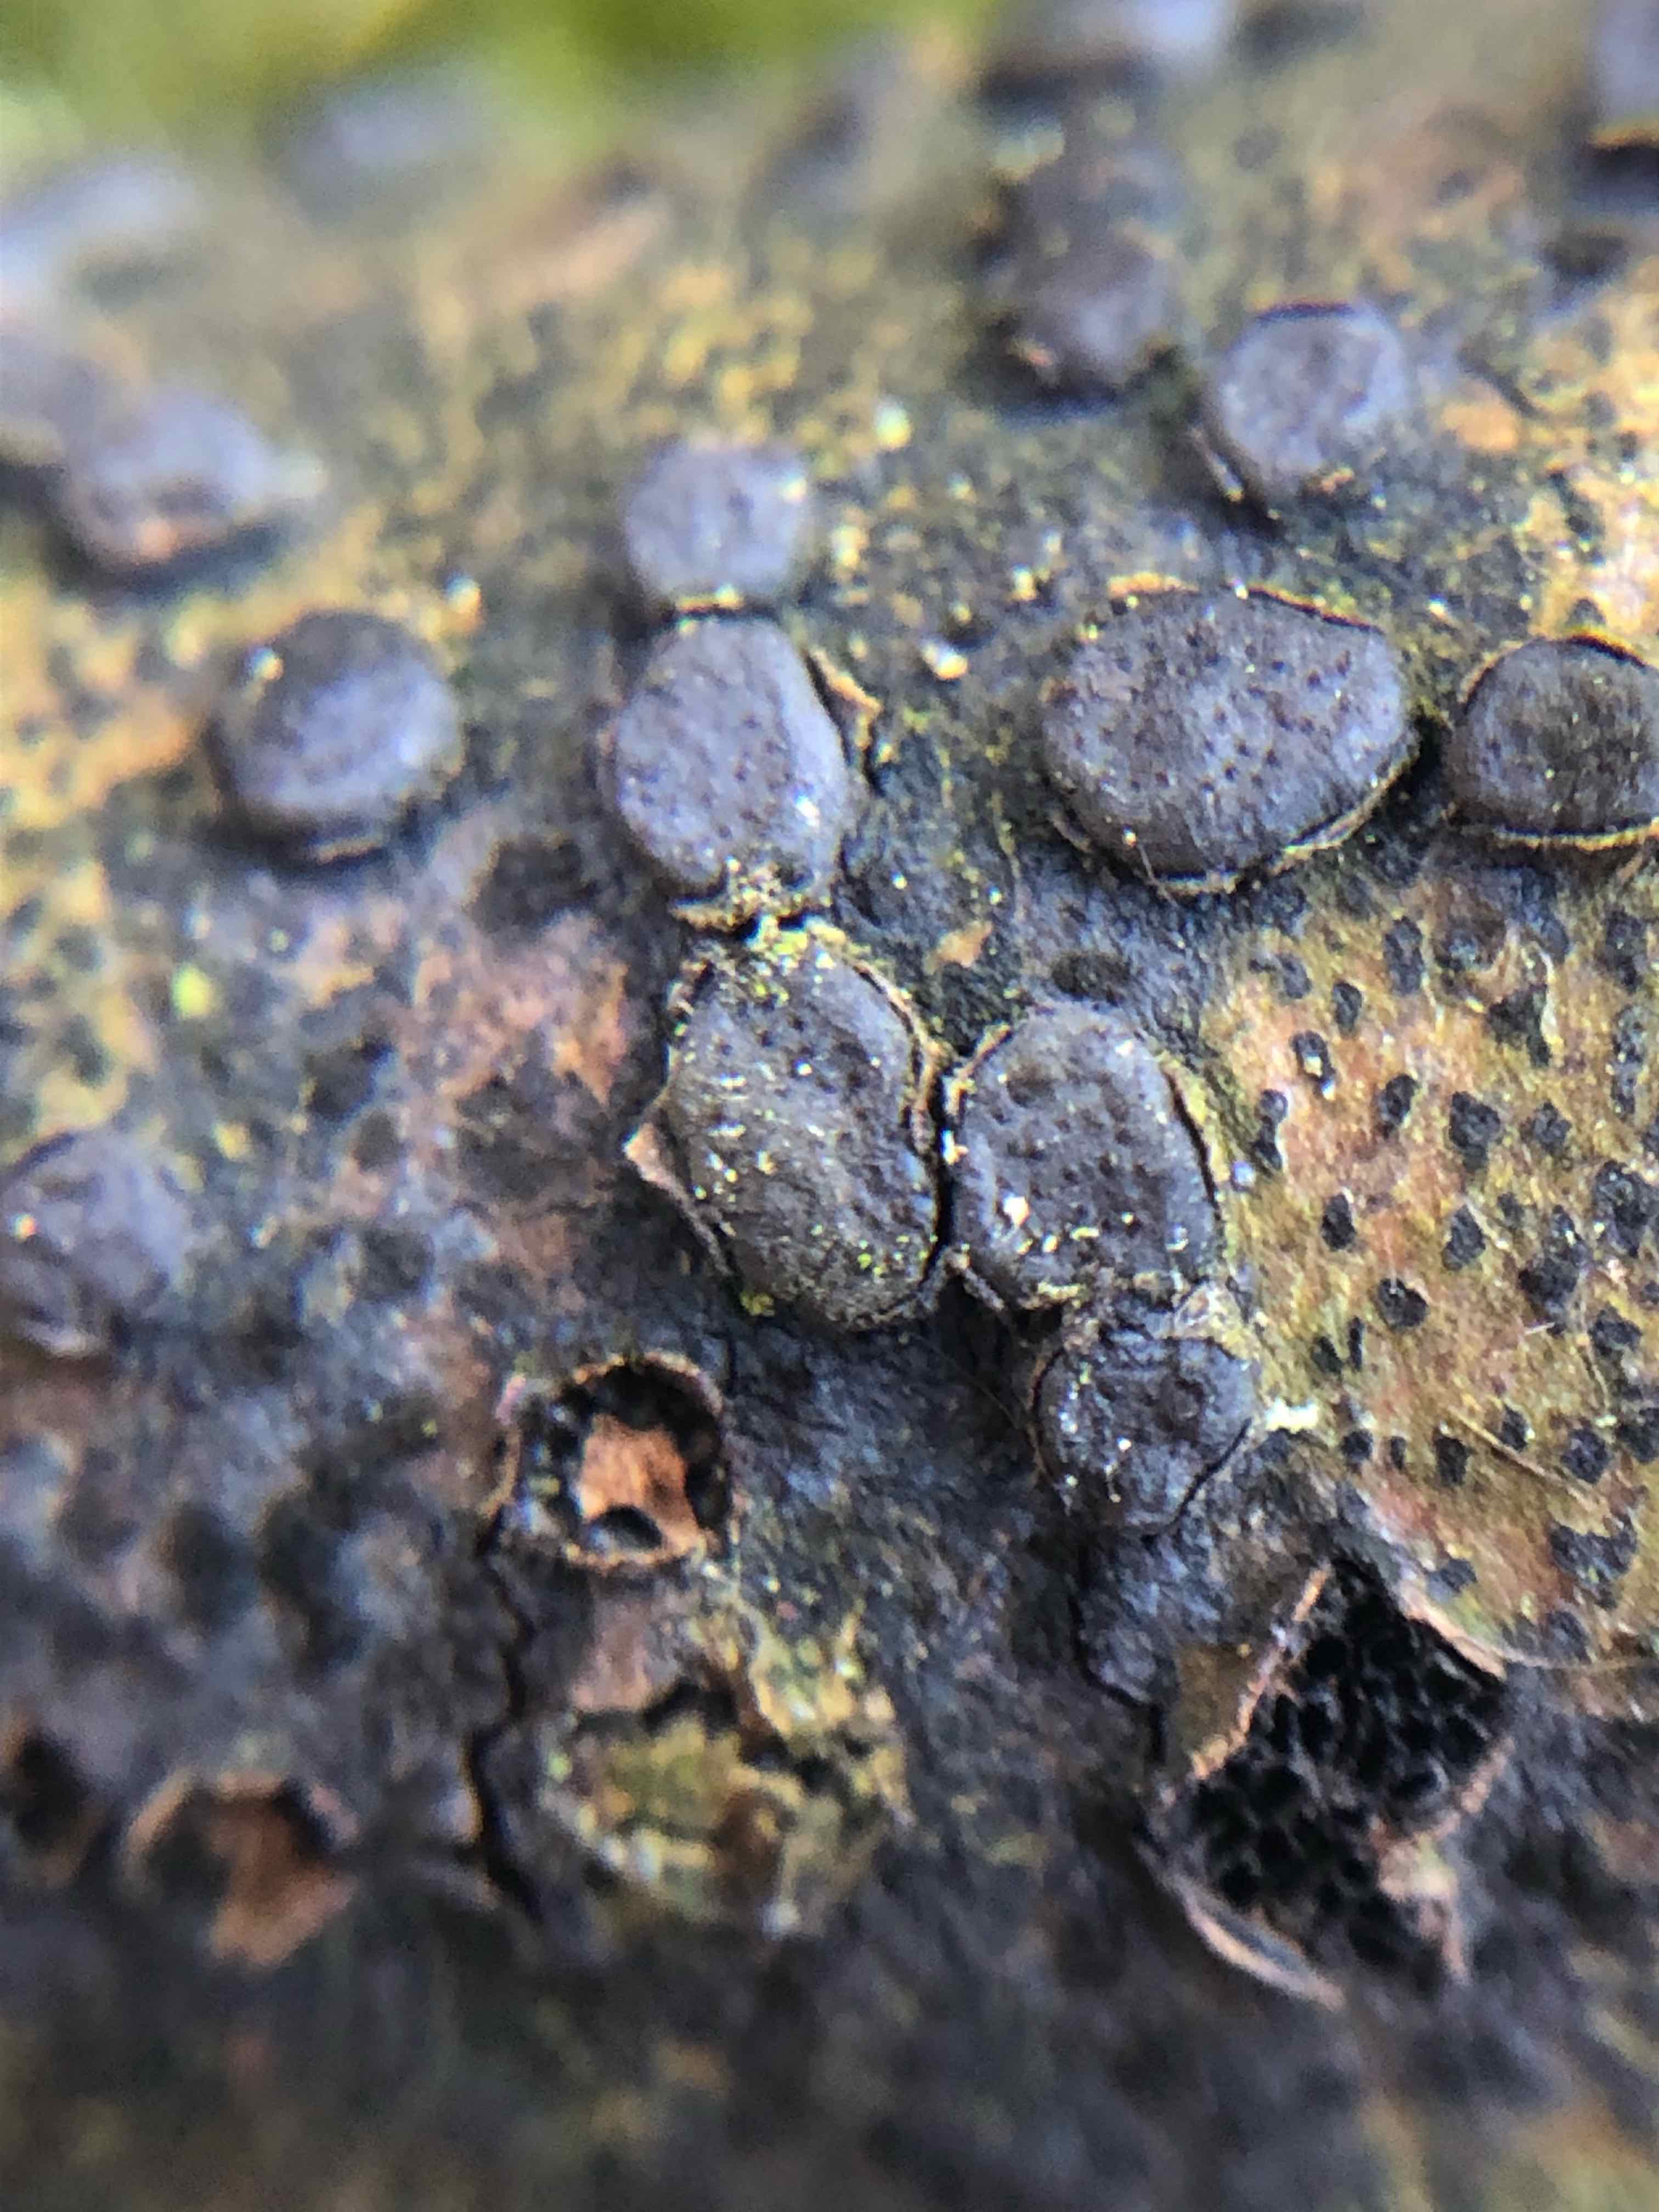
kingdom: Fungi
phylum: Ascomycota
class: Sordariomycetes
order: Xylariales
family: Diatrypaceae
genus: Diatrype
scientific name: Diatrype disciformis
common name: kant-kulskorpe
